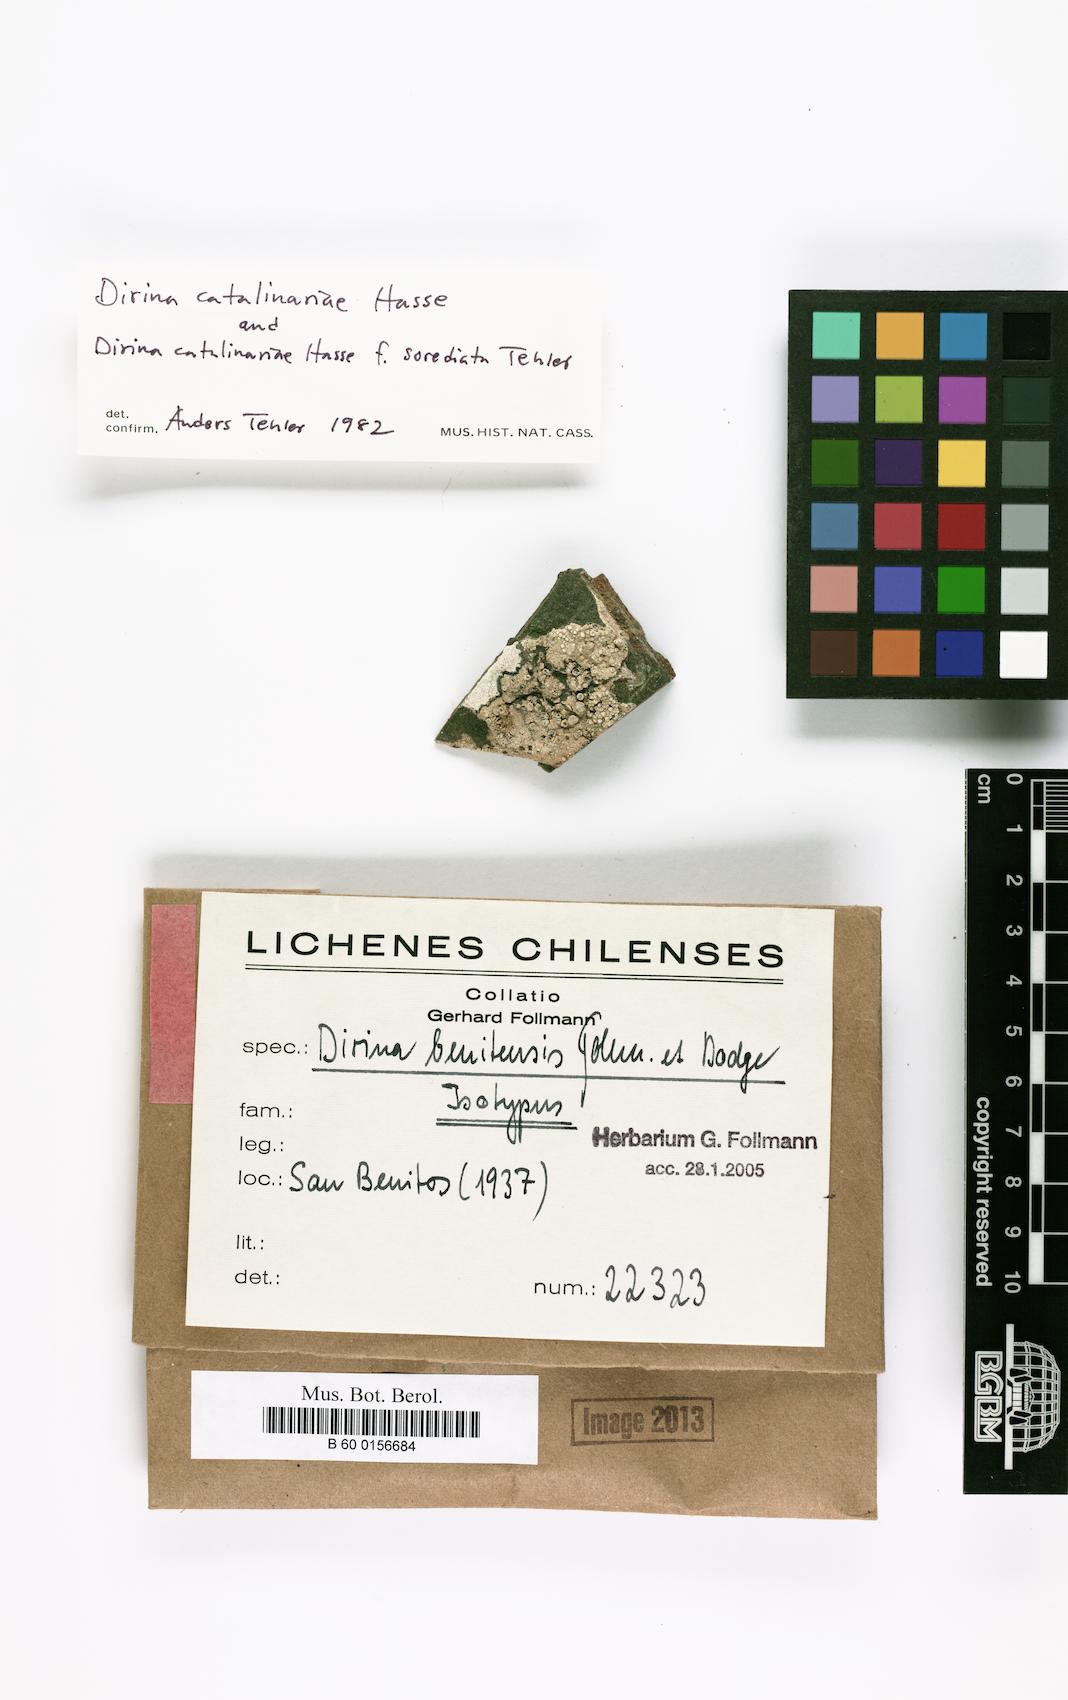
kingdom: Fungi
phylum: Ascomycota
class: Arthoniomycetes
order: Arthoniales
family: Roccellaceae
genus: Dirina
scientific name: Dirina
